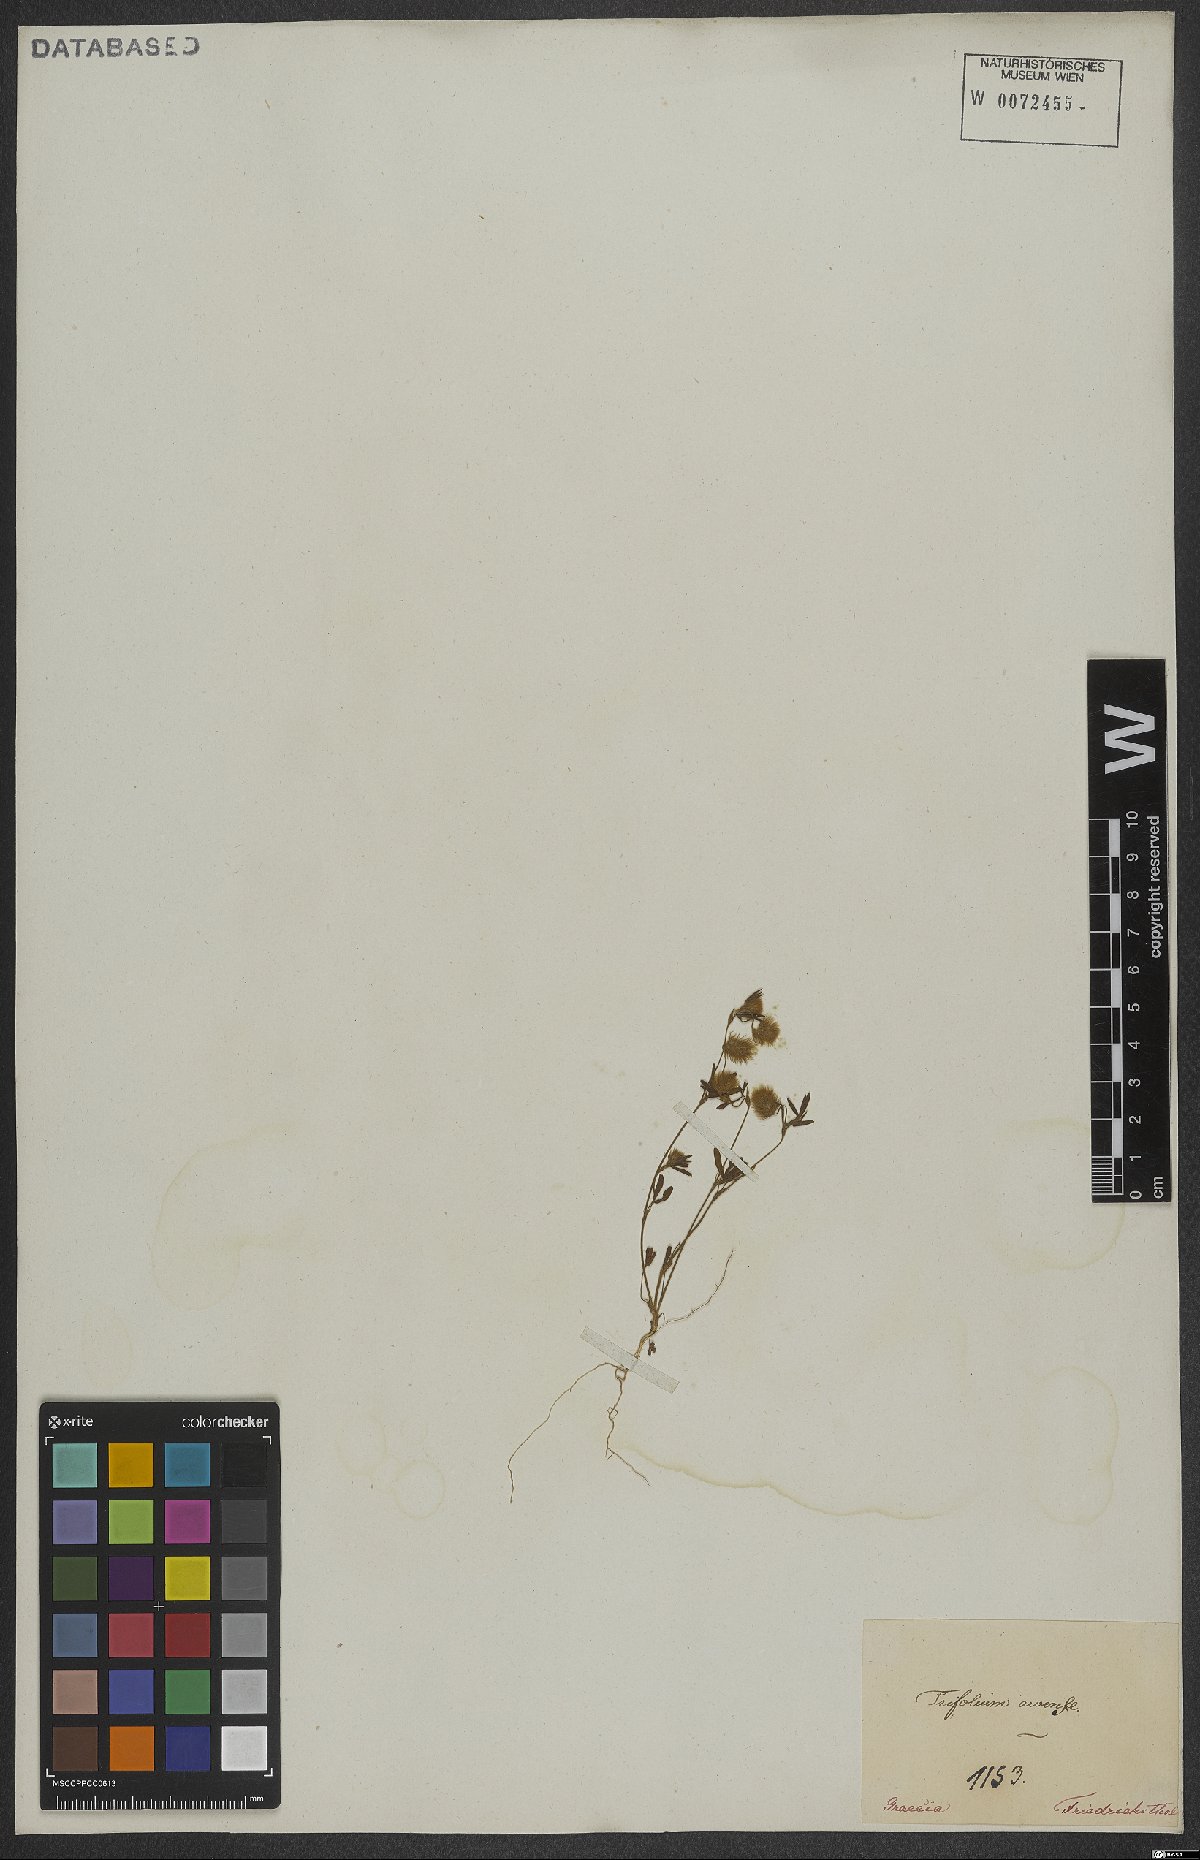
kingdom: Plantae
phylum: Tracheophyta
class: Magnoliopsida
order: Fabales
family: Fabaceae
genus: Trifolium
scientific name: Trifolium arvense
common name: Hare's-foot clover
